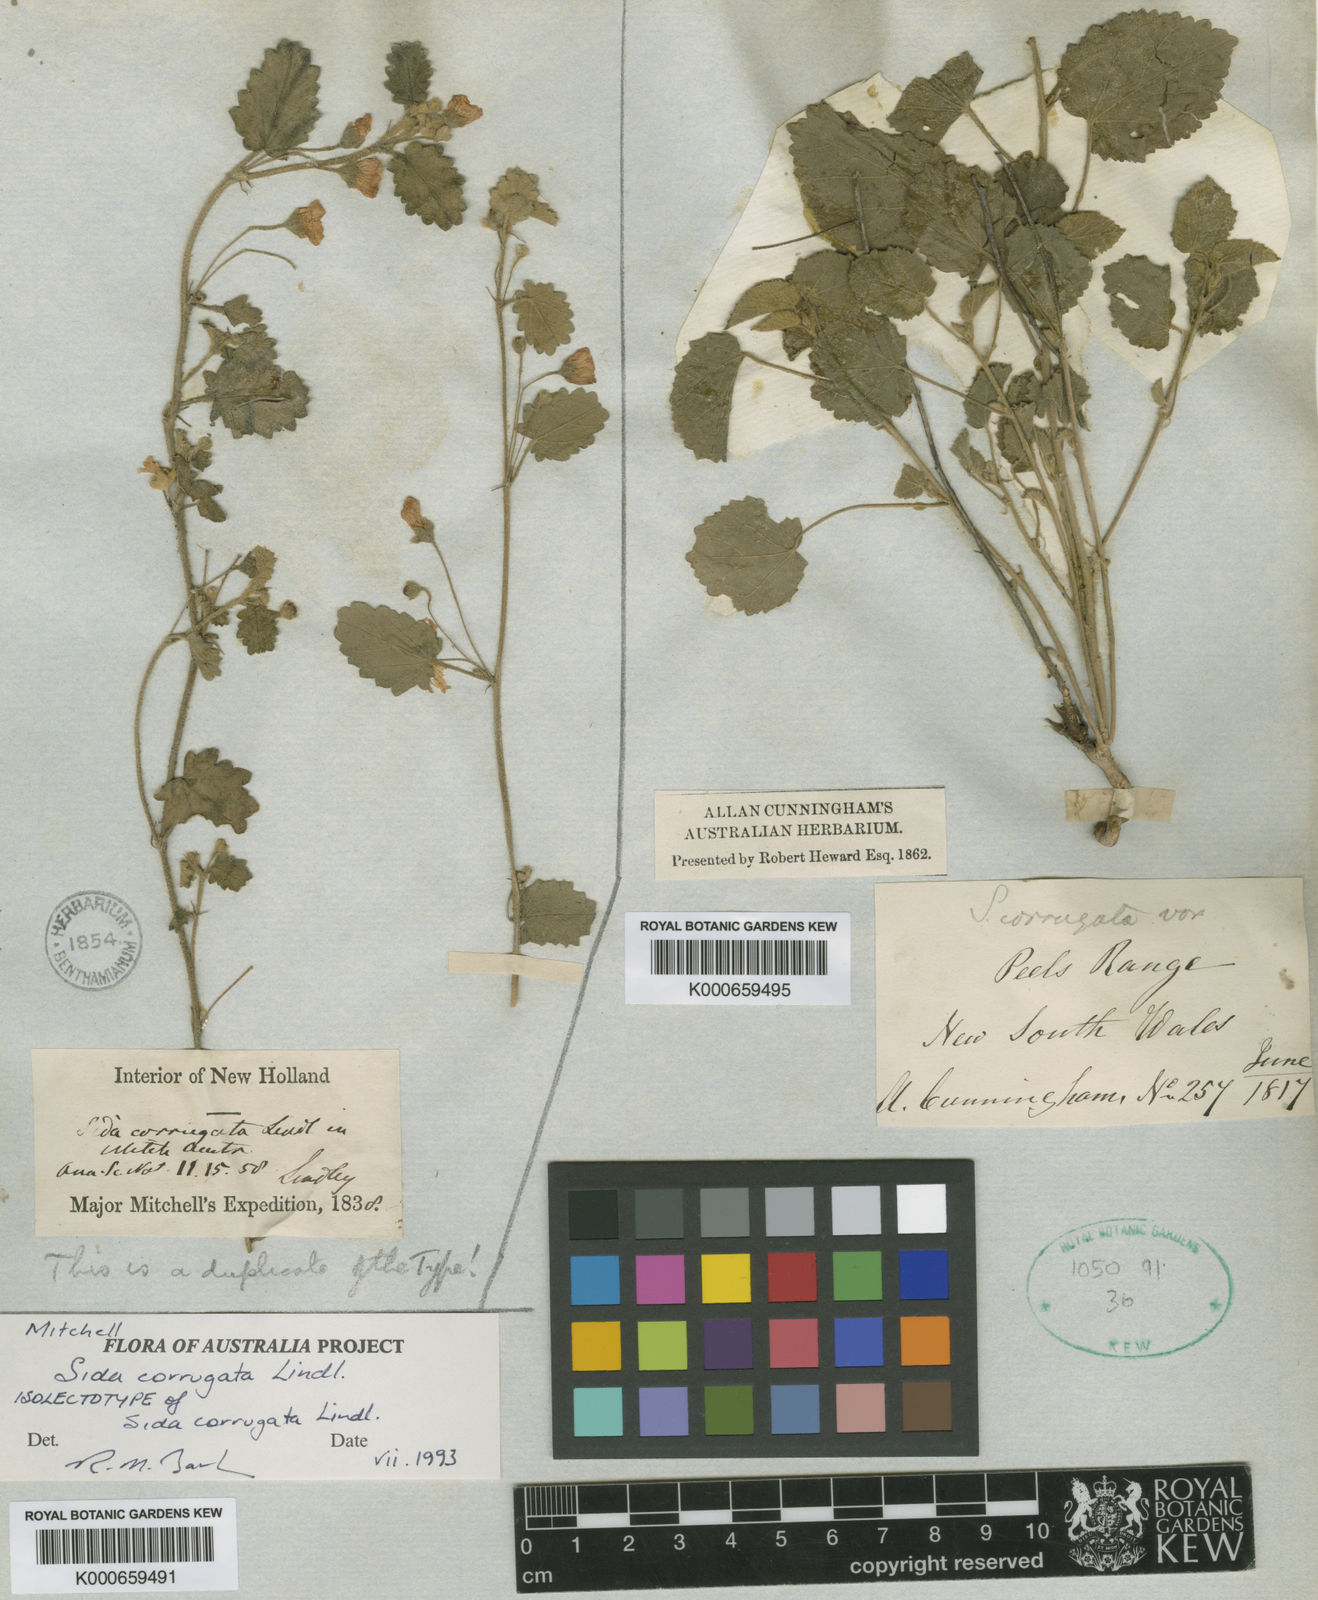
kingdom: Plantae
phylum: Tracheophyta
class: Magnoliopsida
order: Malvales
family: Malvaceae
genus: Sida
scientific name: Sida corrugata
